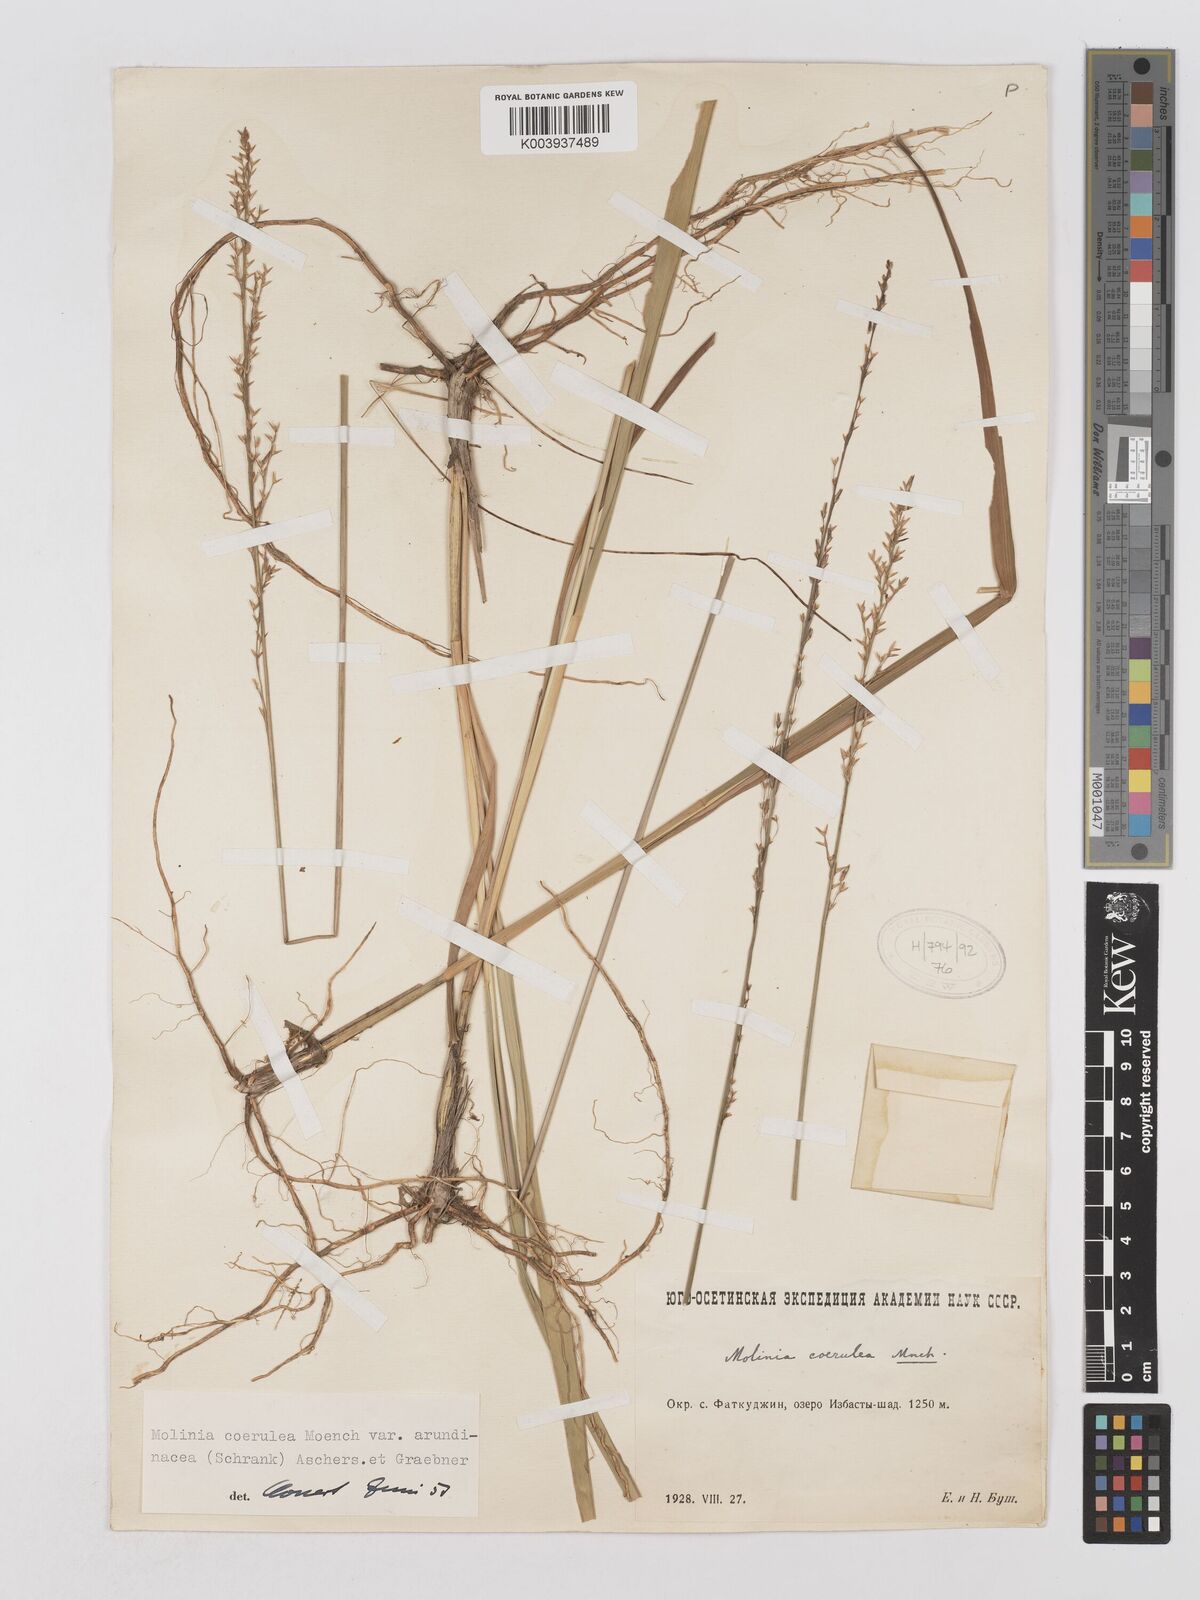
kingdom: Plantae
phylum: Tracheophyta
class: Liliopsida
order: Poales
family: Poaceae
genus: Molinia
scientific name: Molinia caerulea
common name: Purple moor-grass
